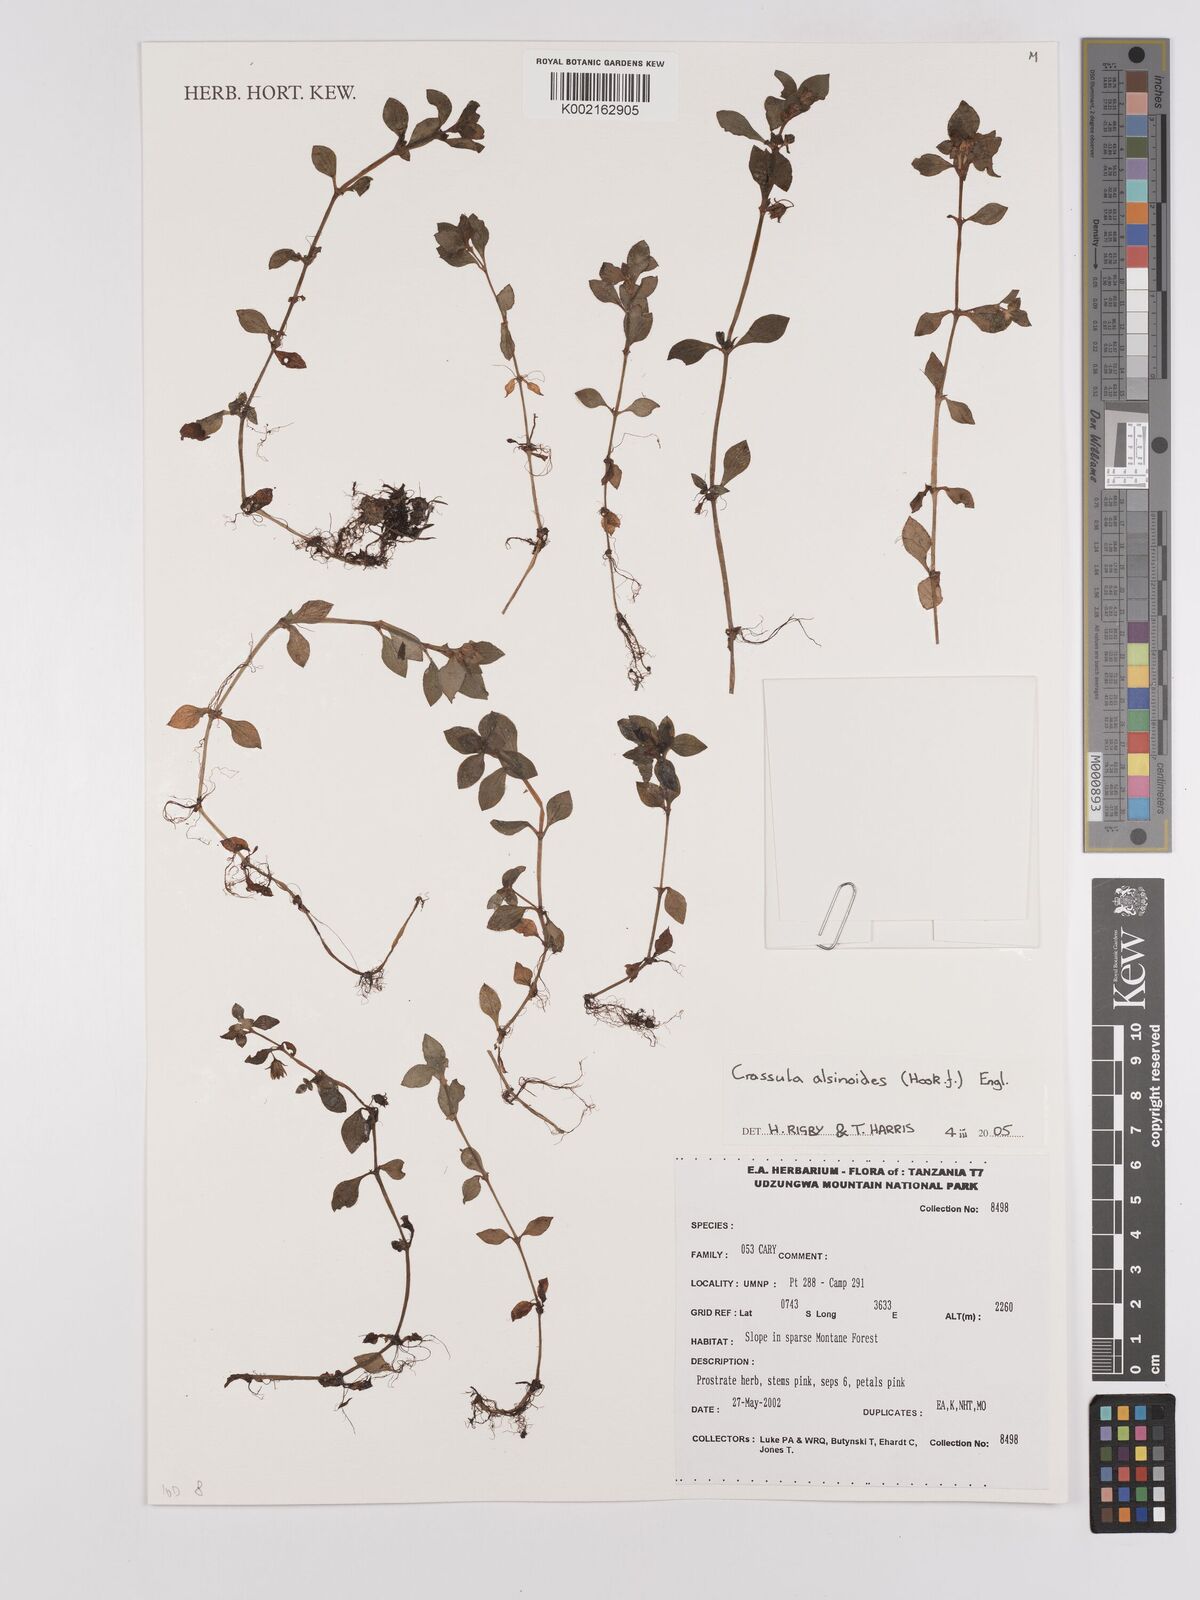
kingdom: Plantae
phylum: Tracheophyta
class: Magnoliopsida
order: Saxifragales
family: Crassulaceae
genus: Crassula
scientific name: Crassula alsinoides
